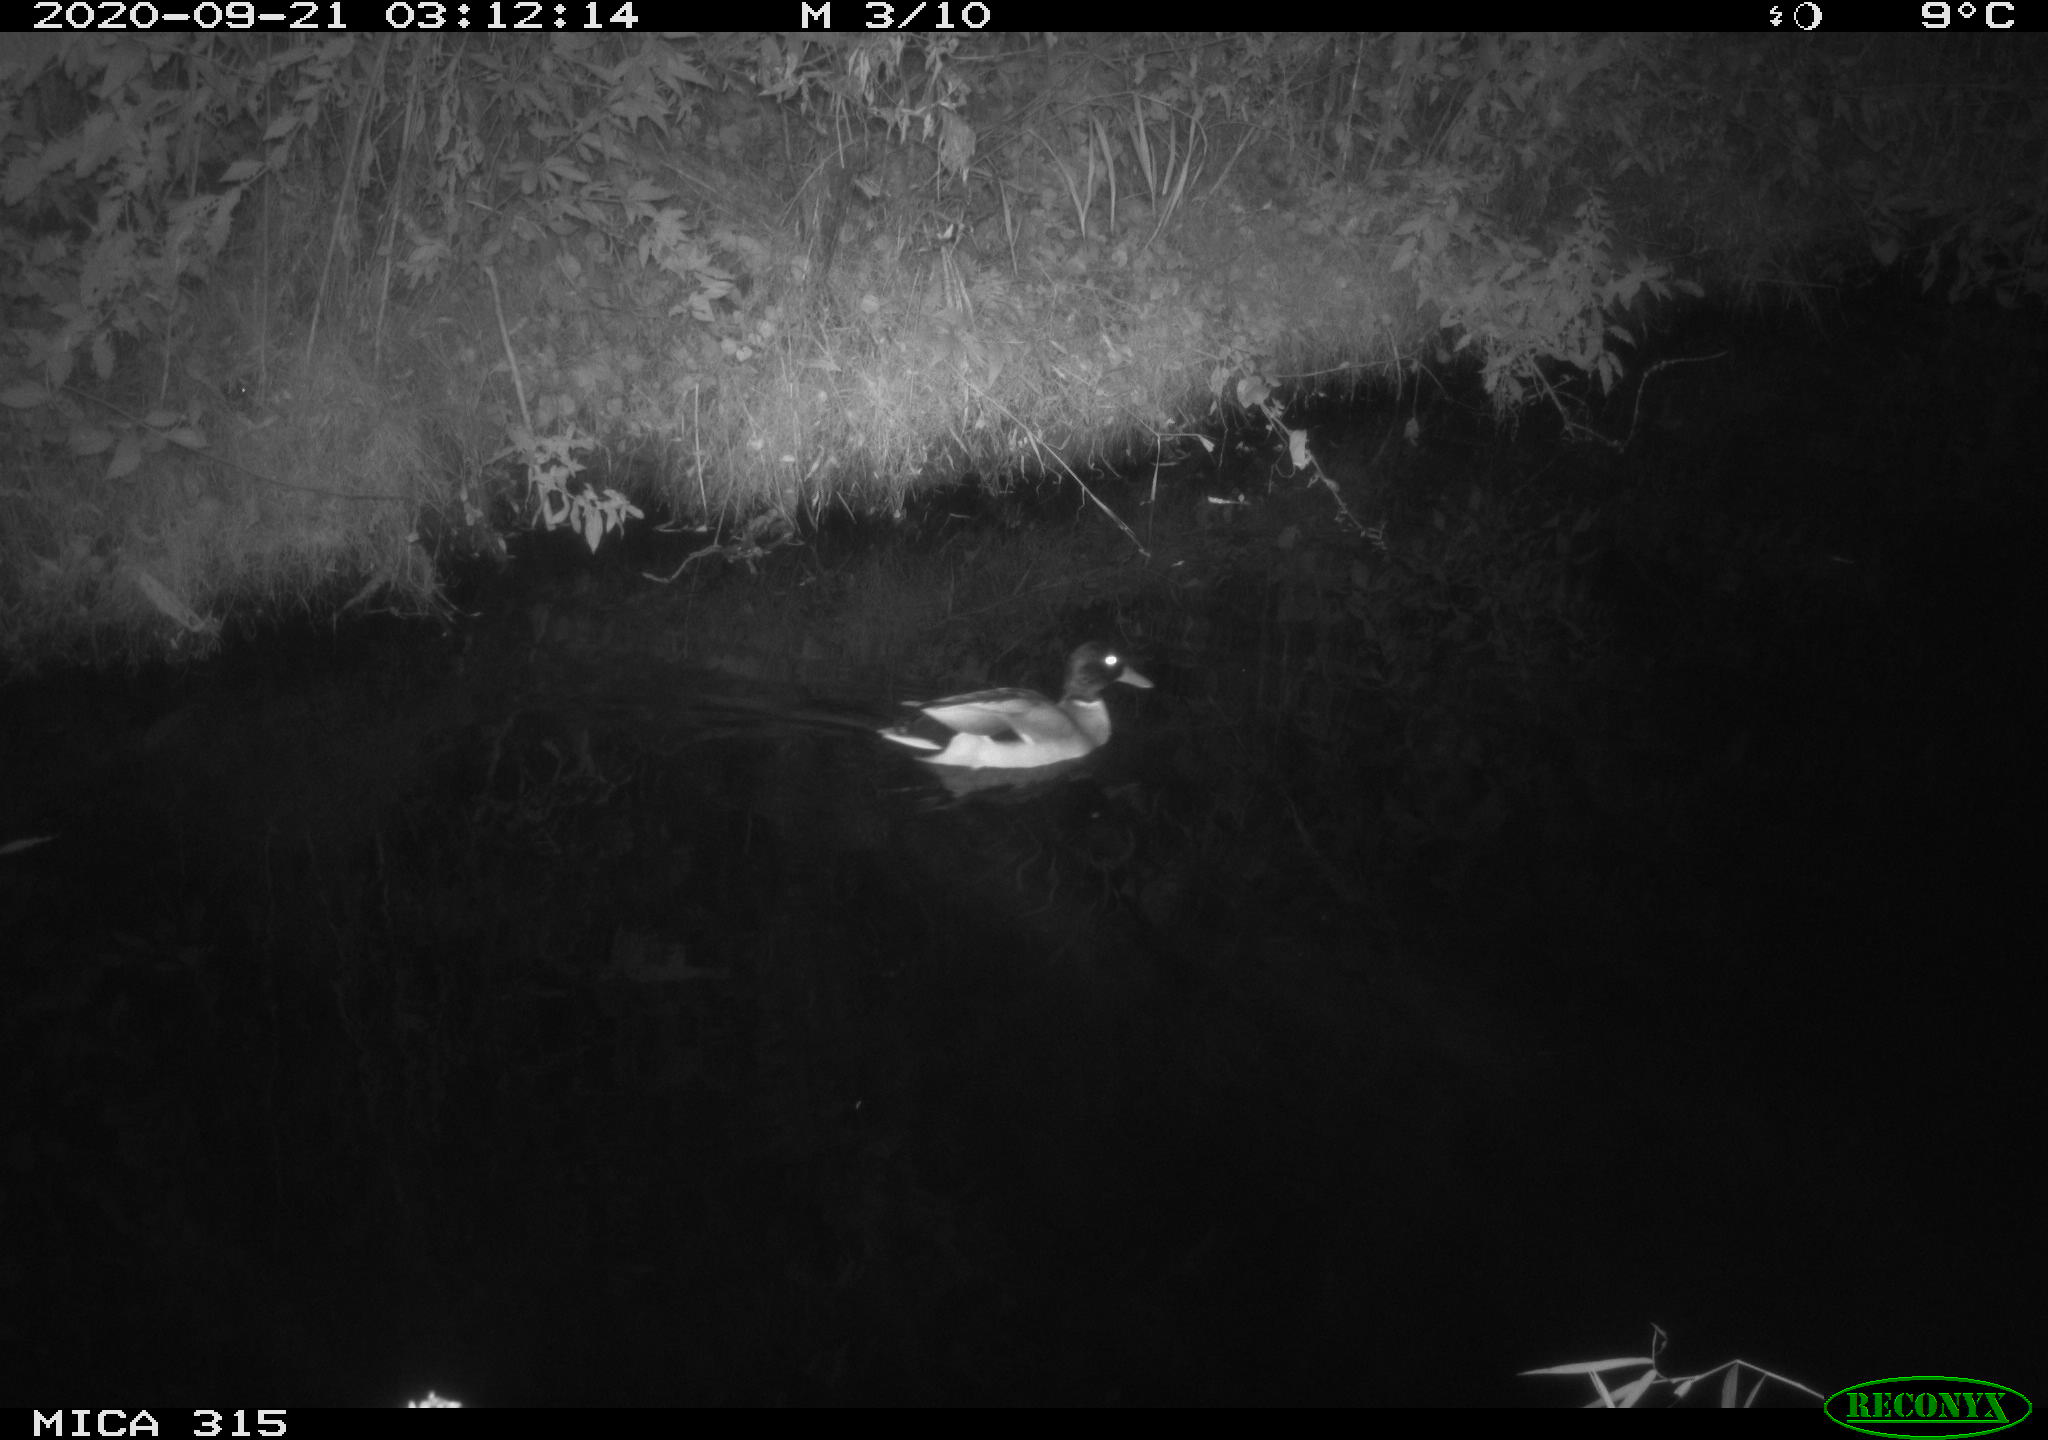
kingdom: Animalia
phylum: Chordata
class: Aves
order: Anseriformes
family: Anatidae
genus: Anas
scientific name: Anas platyrhynchos
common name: Mallard
